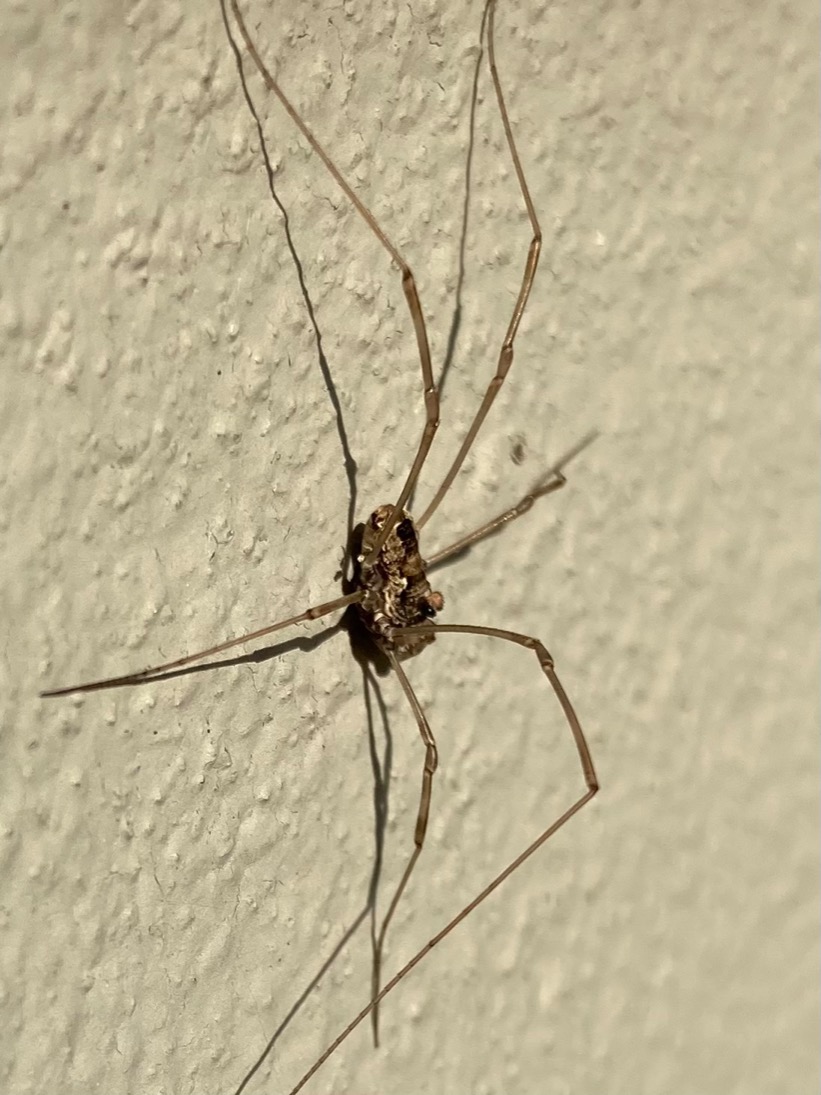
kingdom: Animalia
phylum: Arthropoda
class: Arachnida
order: Opiliones
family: Phalangiidae
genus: Platybunus
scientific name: Platybunus pinetorum
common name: Storøjet mejer
